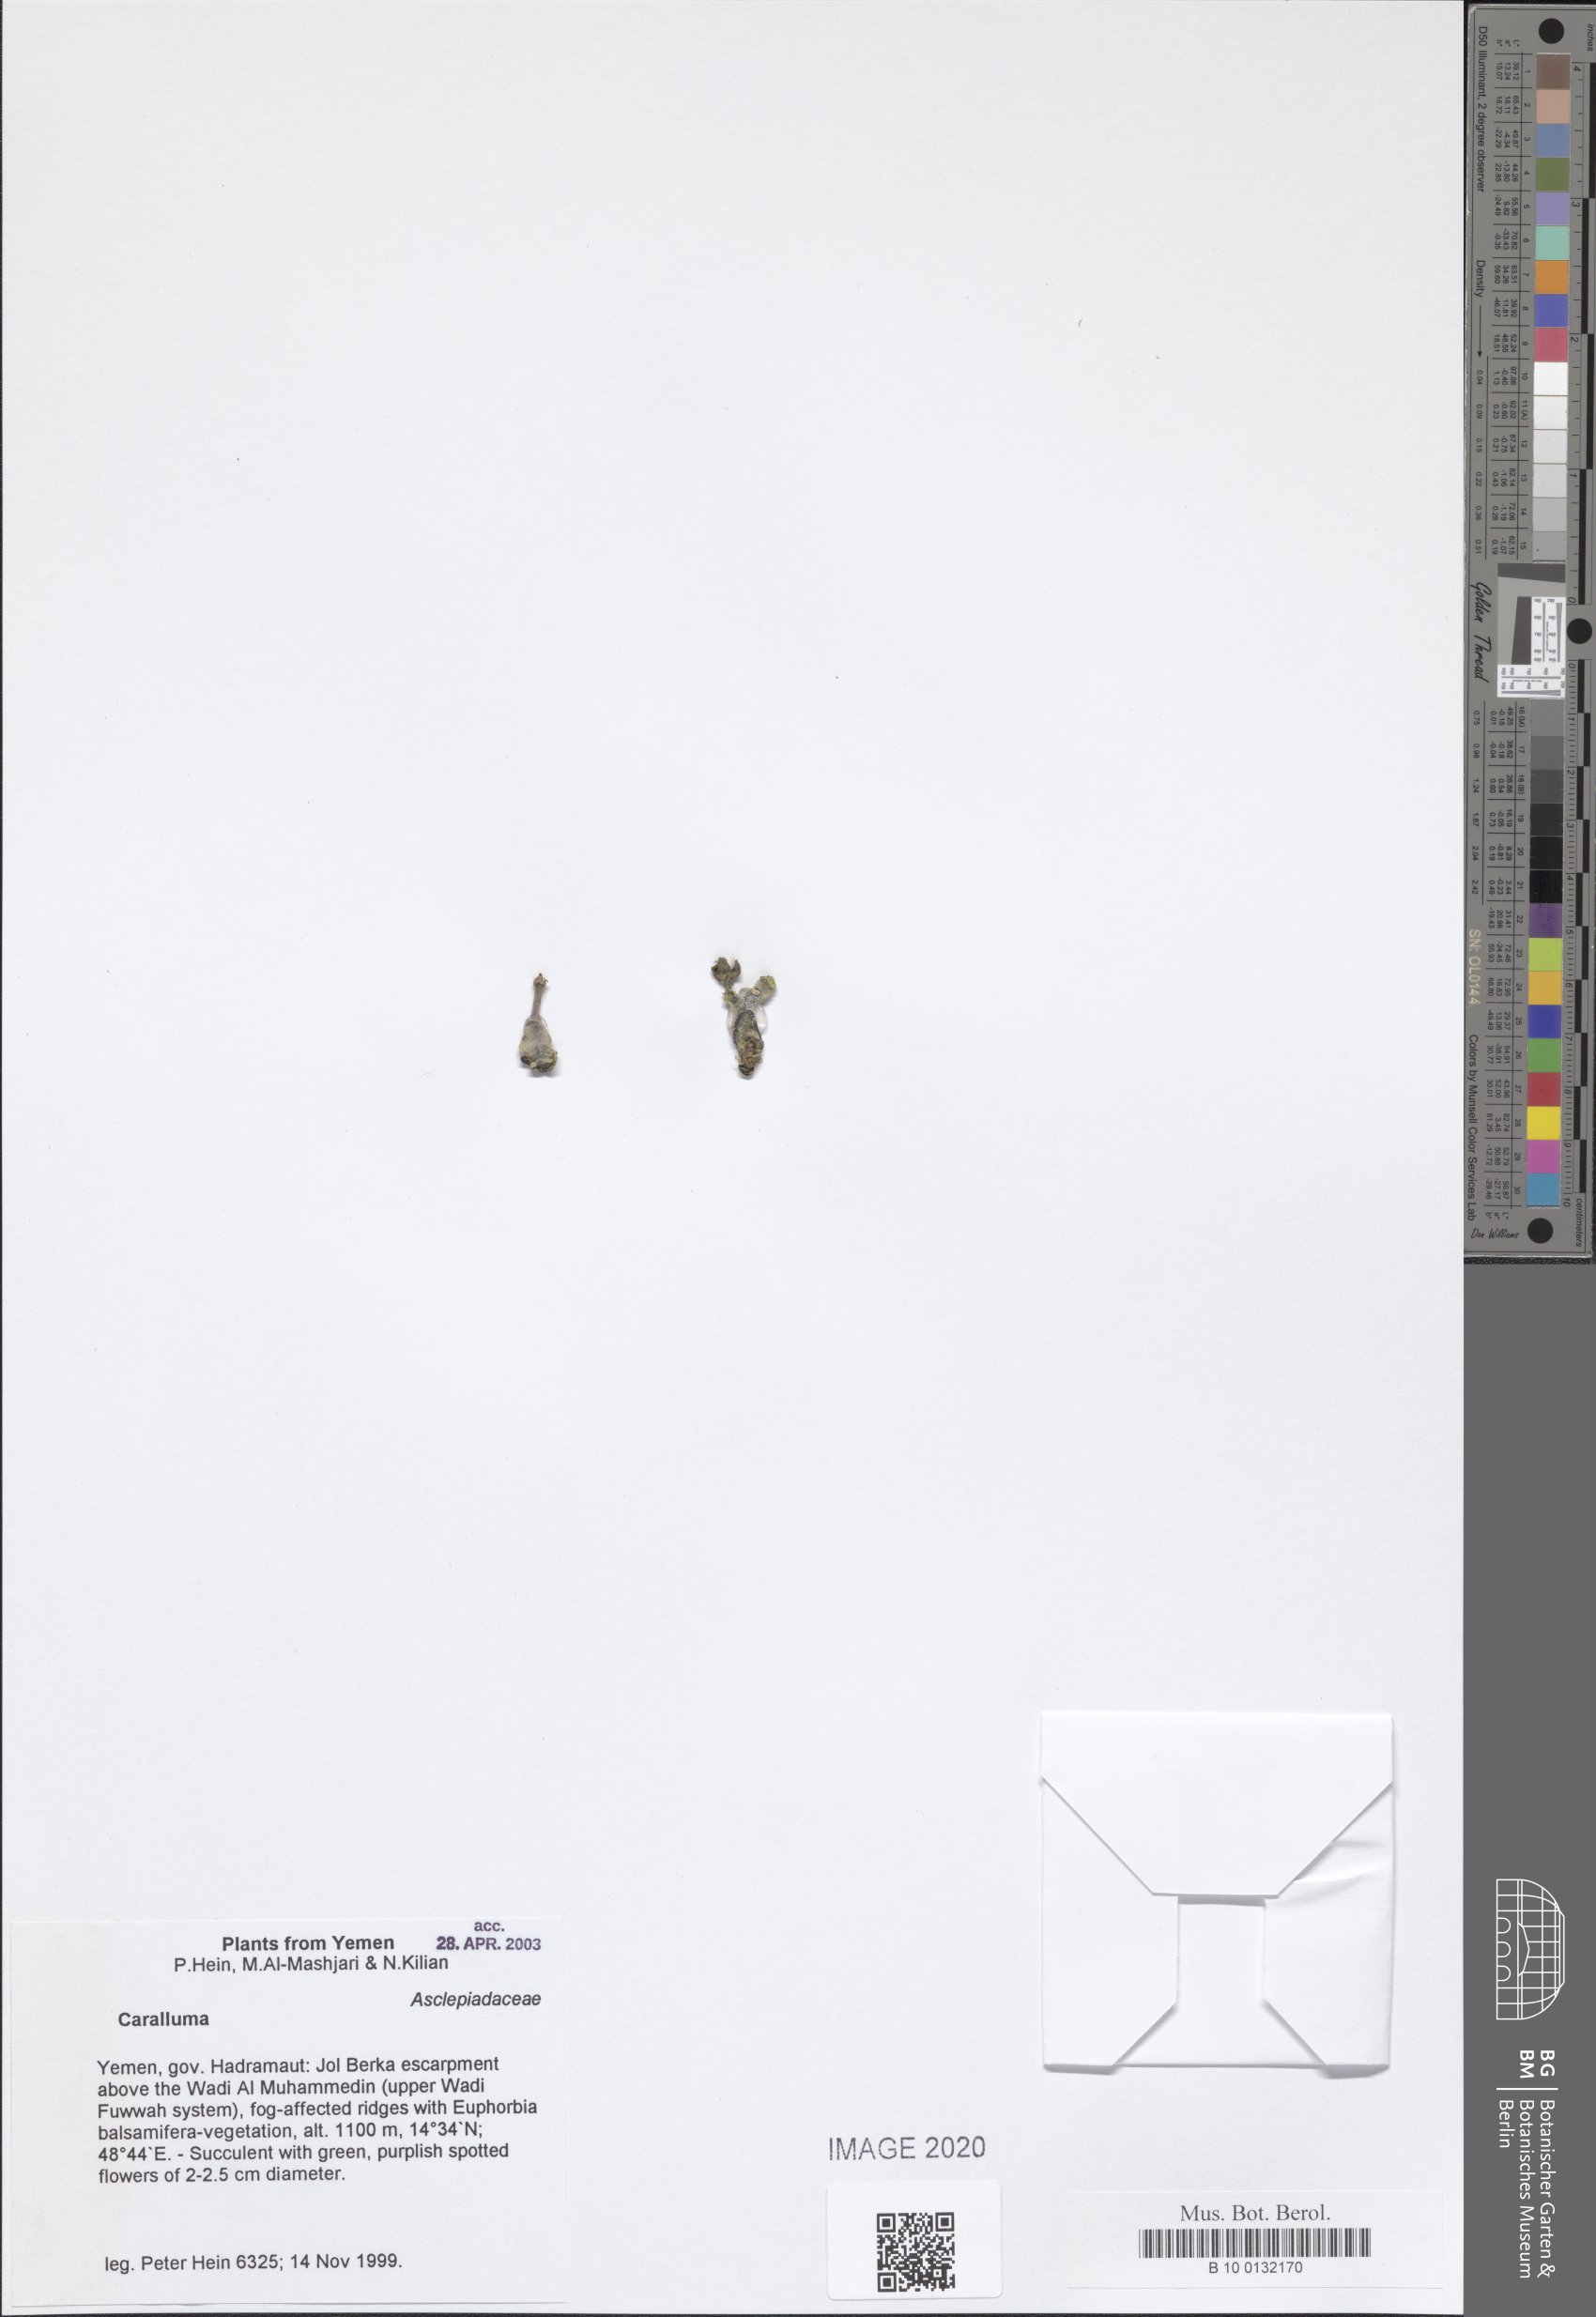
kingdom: Plantae
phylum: Tracheophyta
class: Magnoliopsida
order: Gentianales
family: Apocynaceae
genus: Ceropegia
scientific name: Ceropegia dolichocarpa
